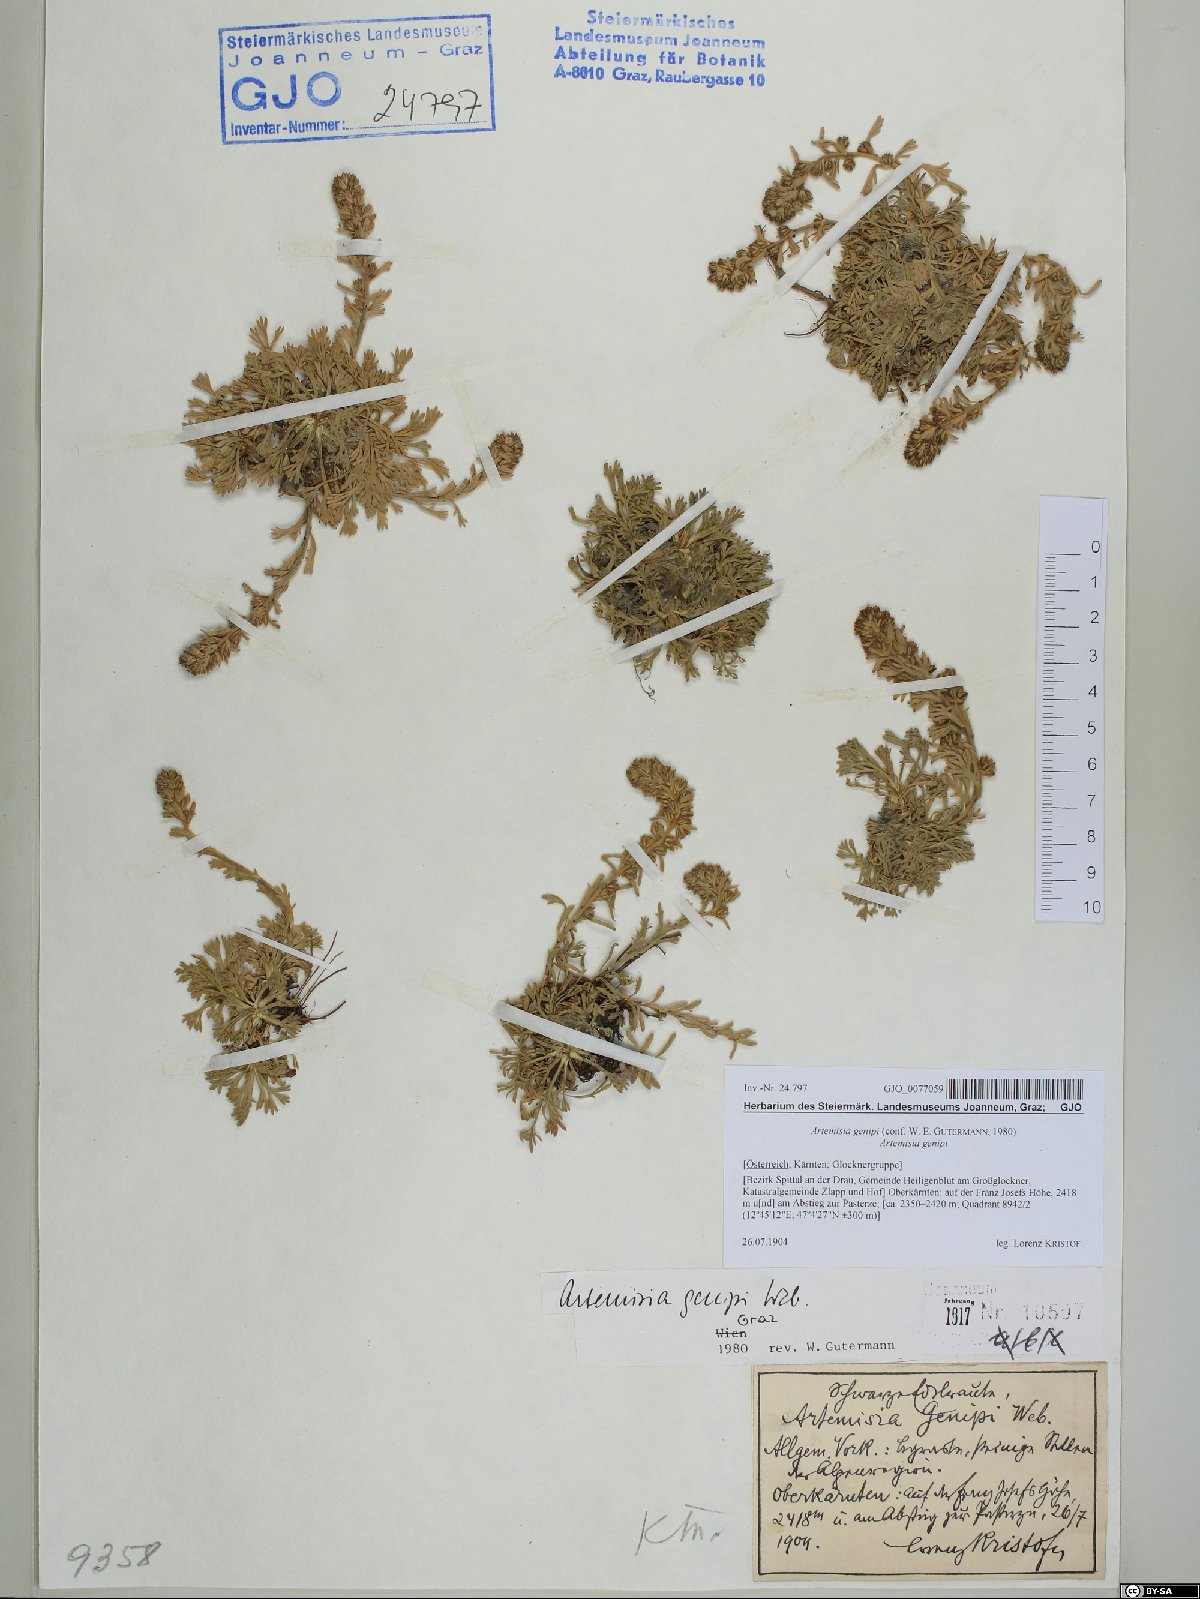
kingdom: Plantae
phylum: Tracheophyta
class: Magnoliopsida
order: Asterales
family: Asteraceae
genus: Artemisia
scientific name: Artemisia genipi
